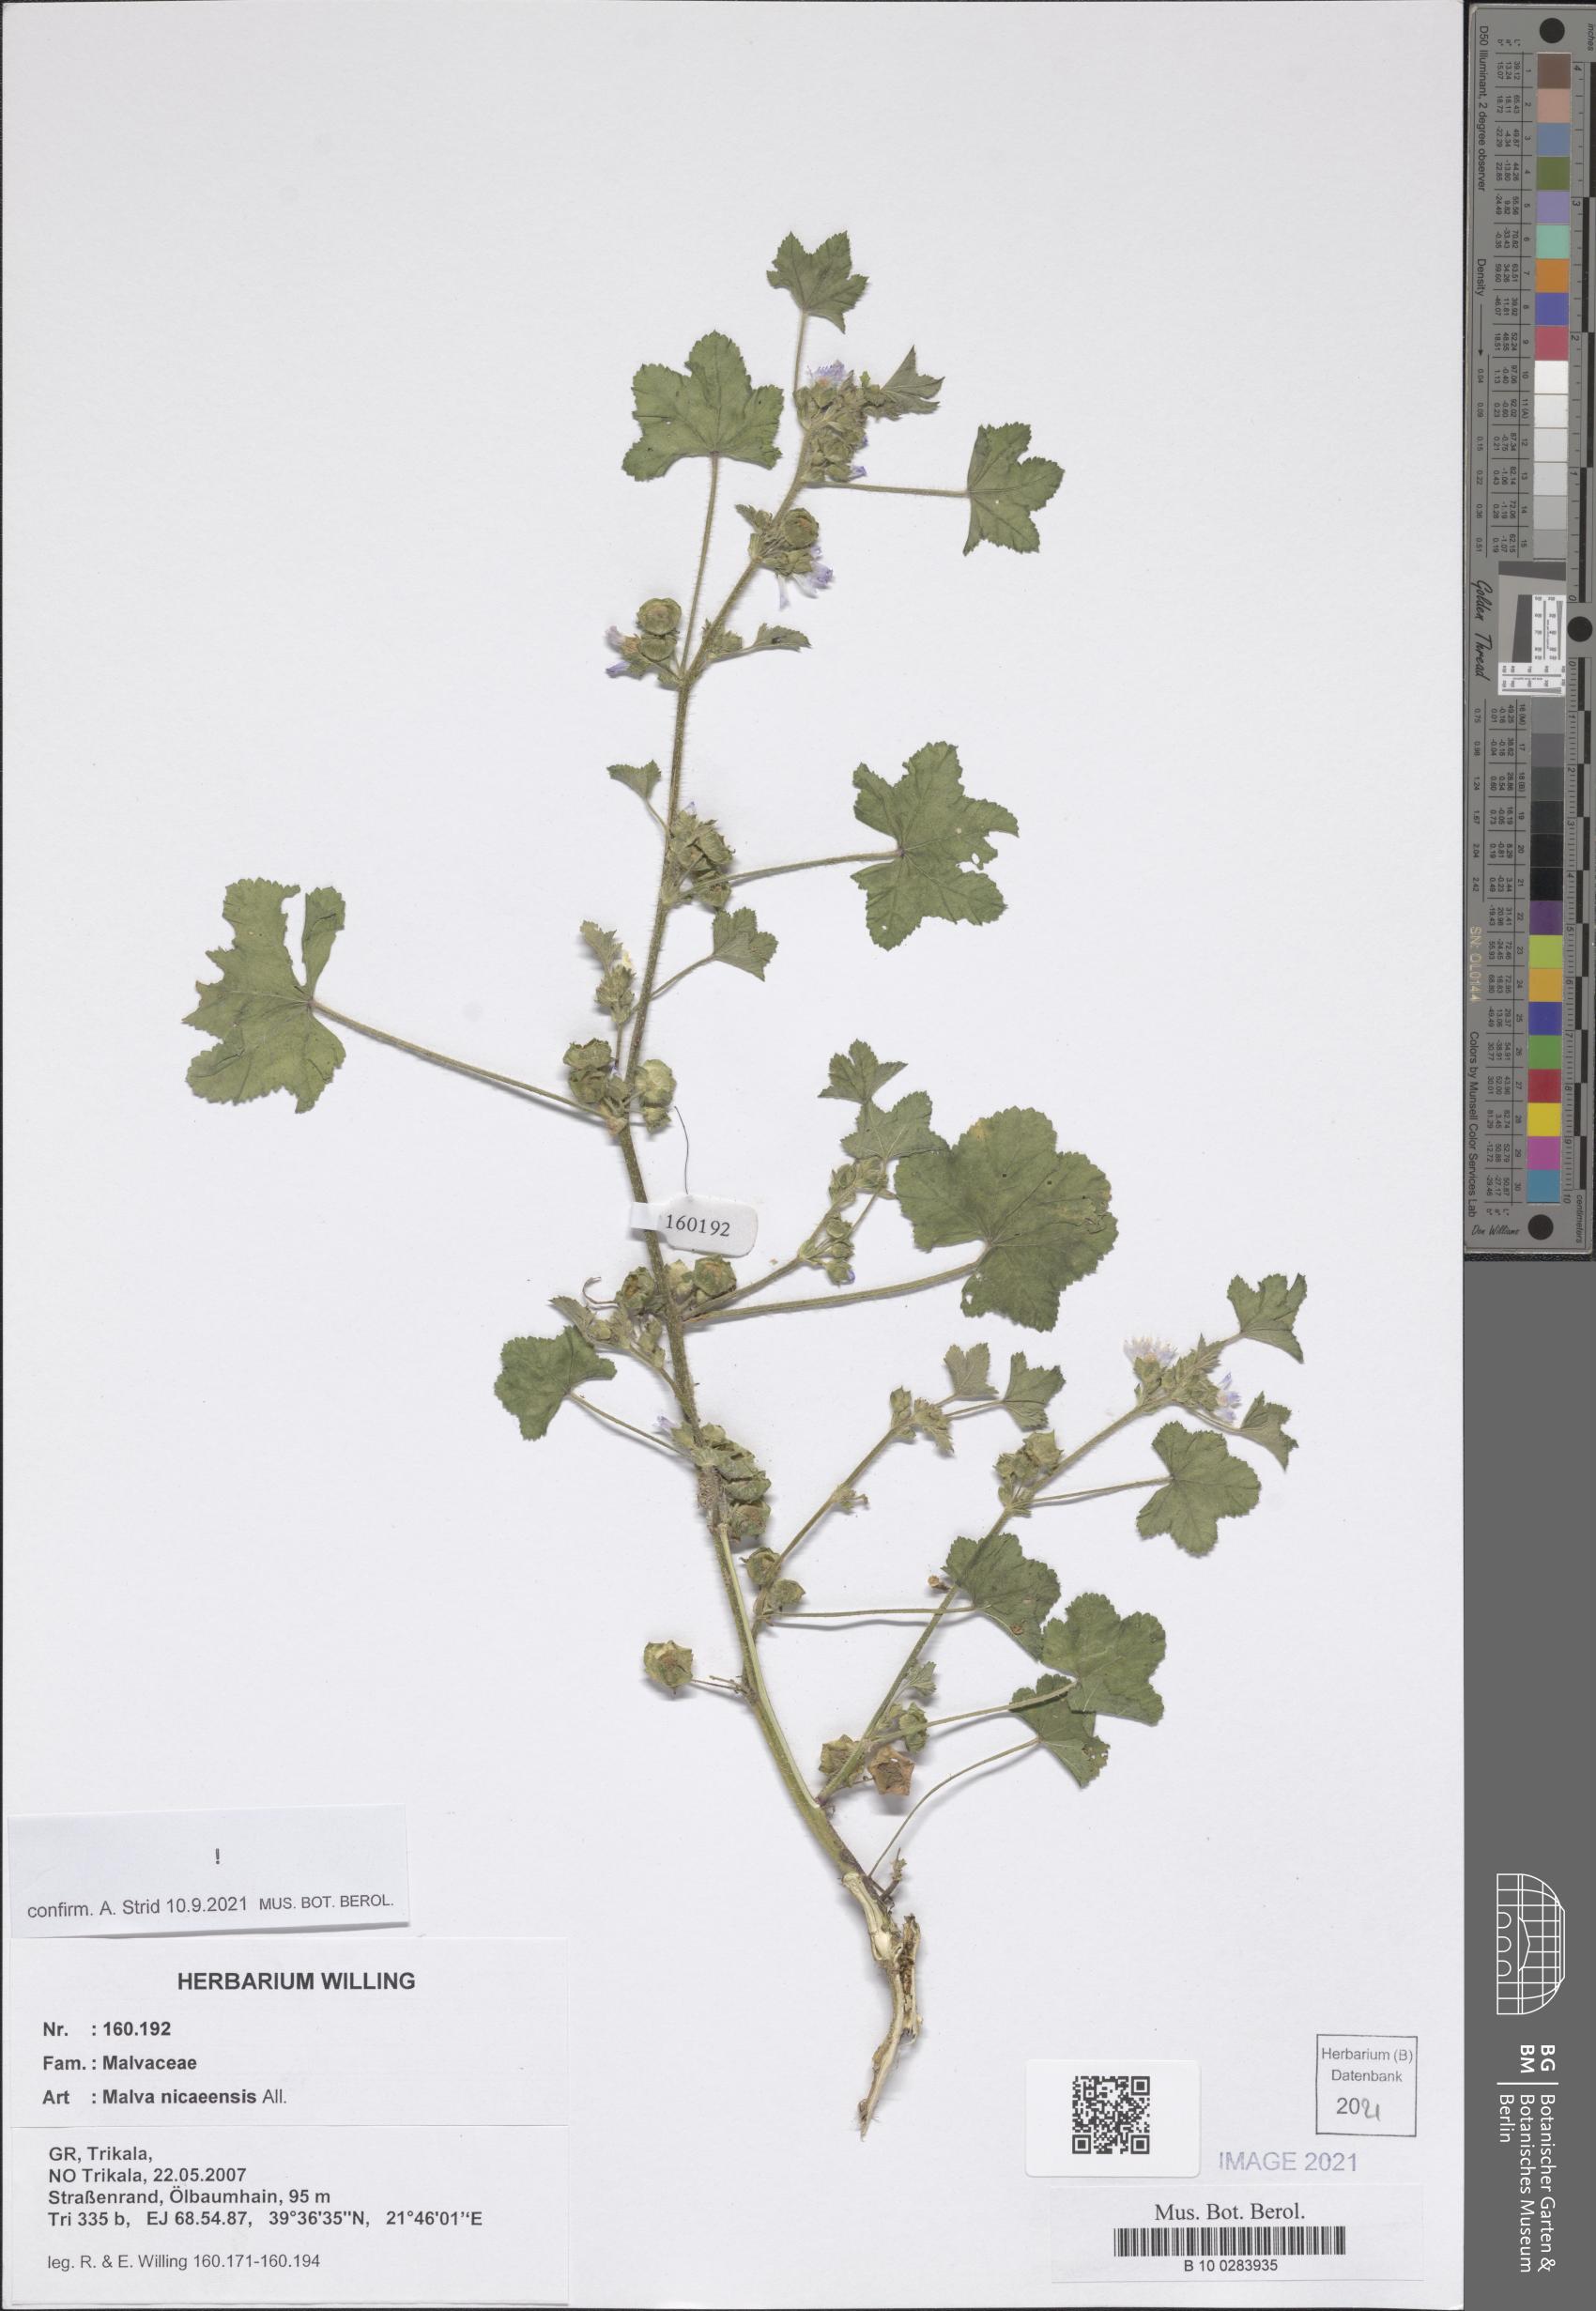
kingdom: Plantae
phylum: Tracheophyta
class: Magnoliopsida
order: Malvales
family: Malvaceae
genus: Malva
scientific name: Malva nicaeensis
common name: French mallow
